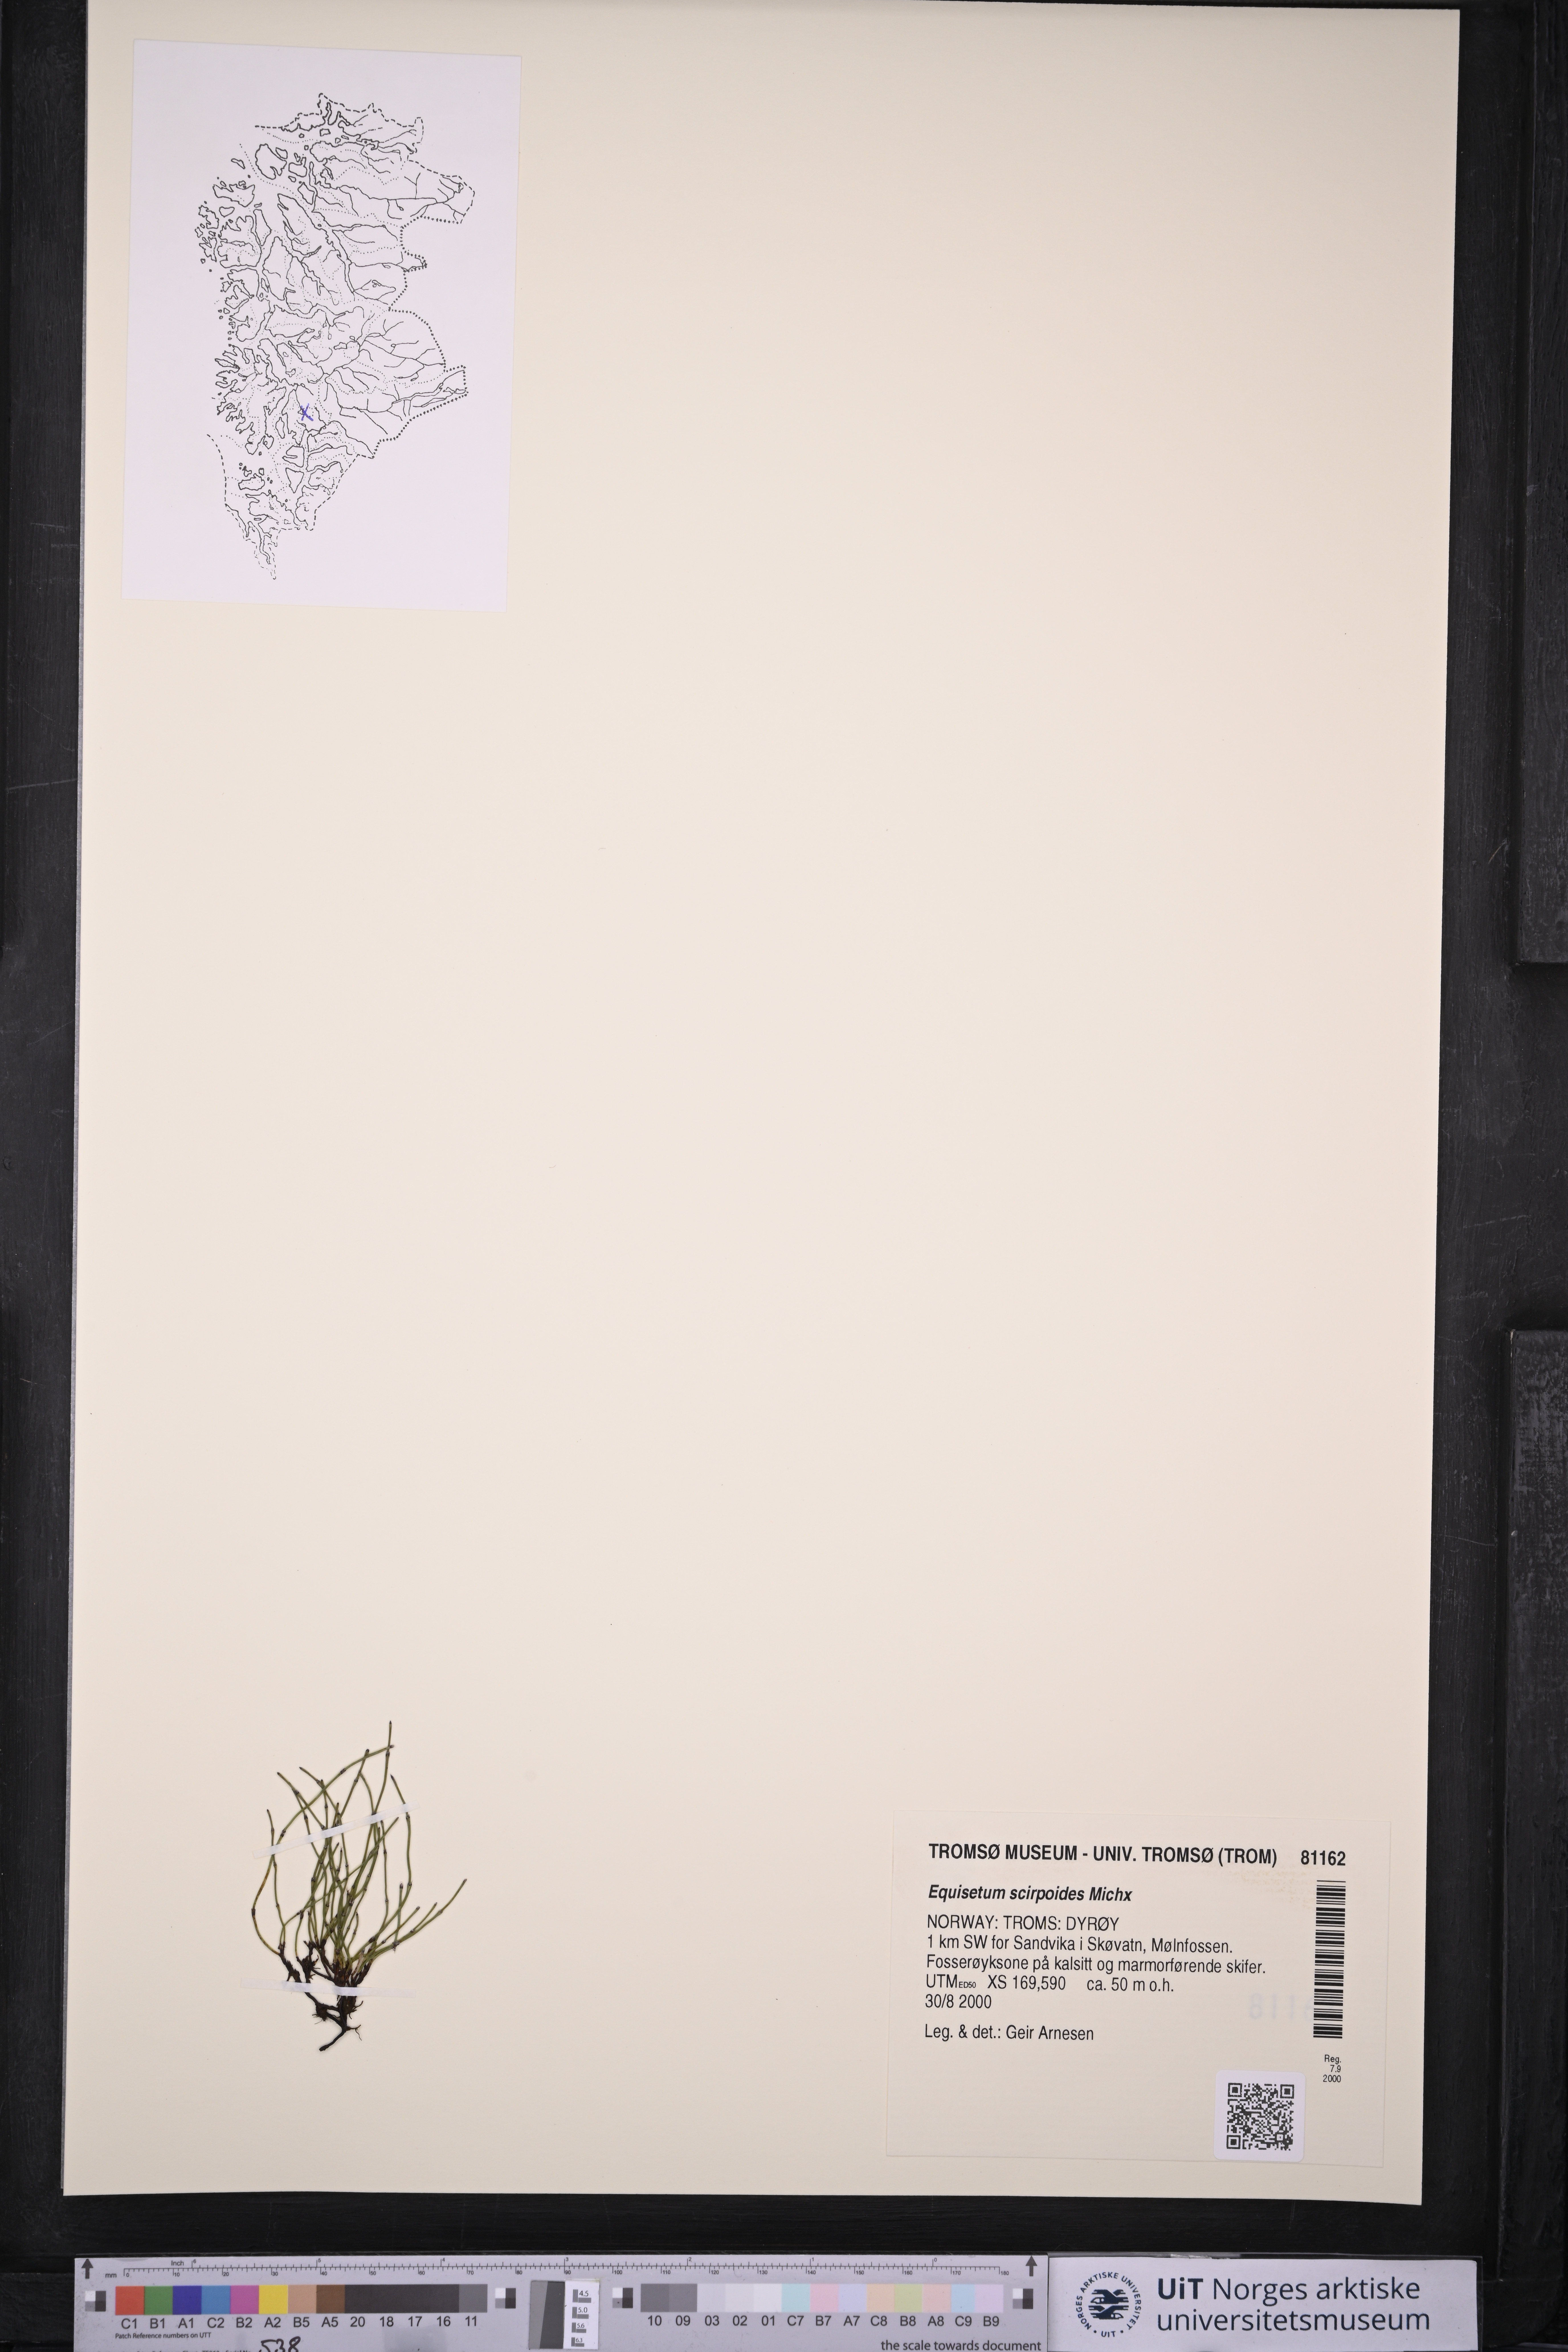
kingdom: Plantae
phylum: Tracheophyta
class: Polypodiopsida
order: Equisetales
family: Equisetaceae
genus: Equisetum
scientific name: Equisetum scirpoides
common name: Delicate horsetail
